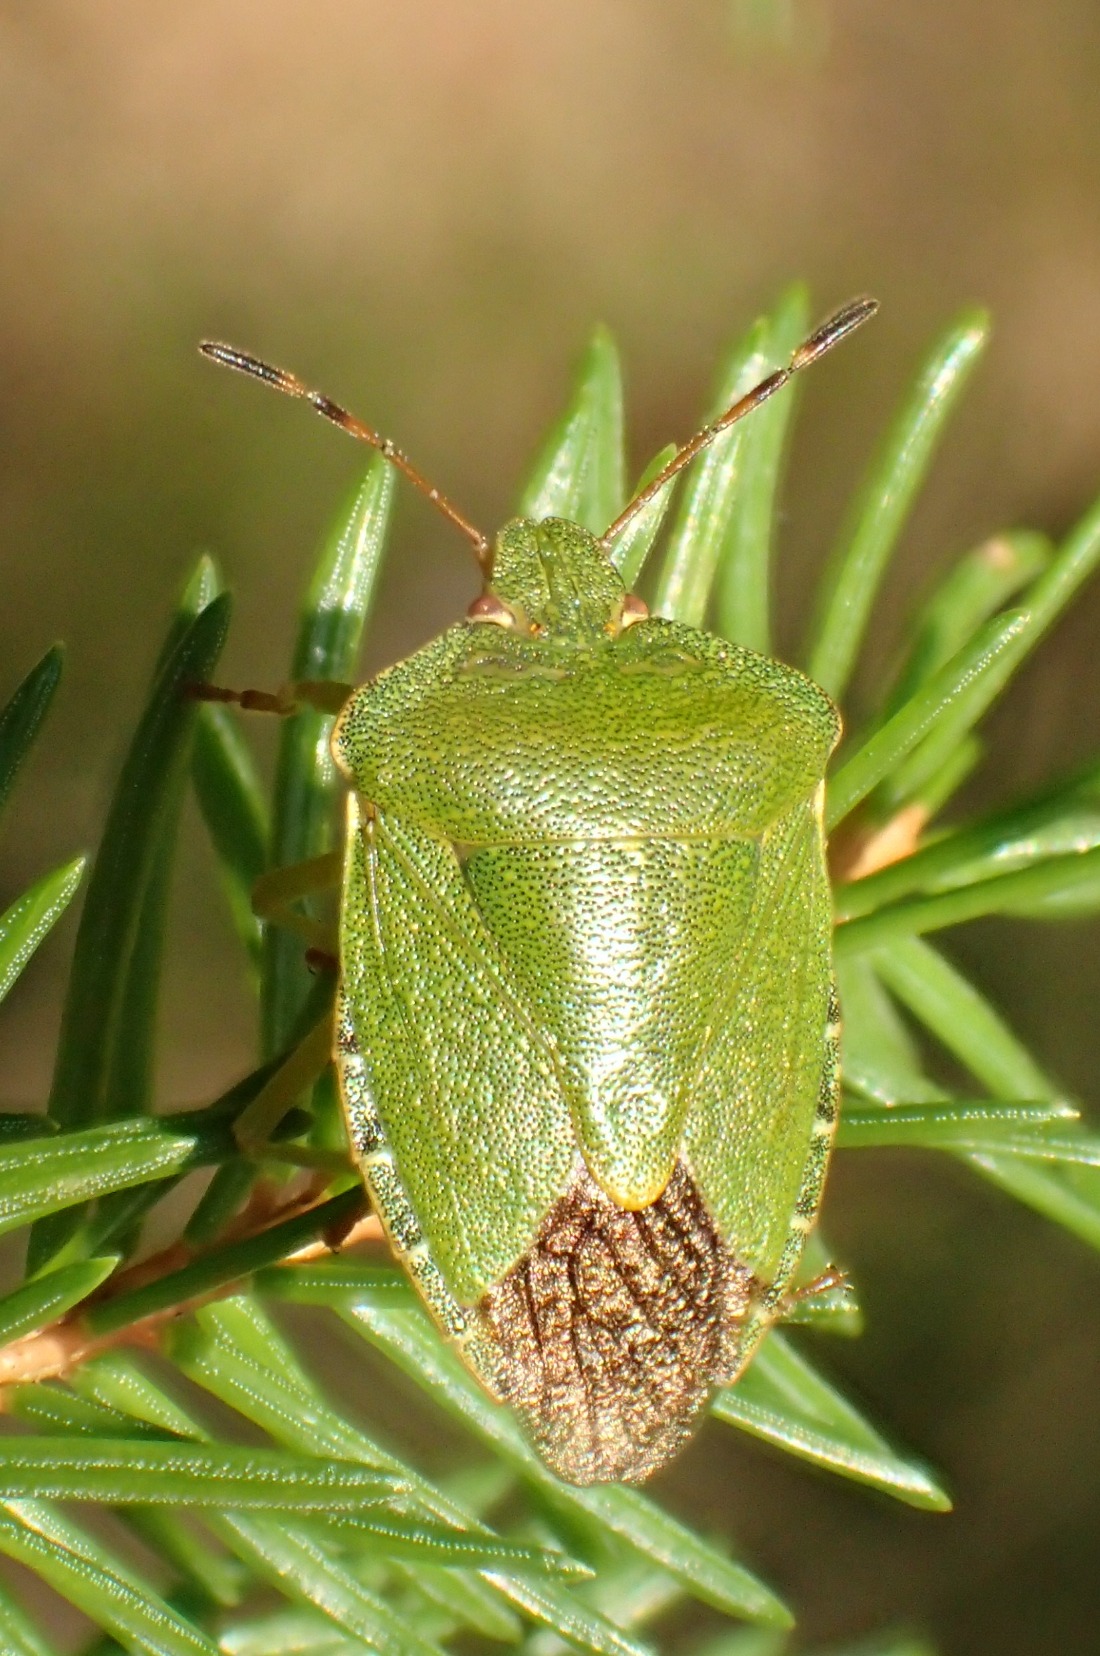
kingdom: Animalia
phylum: Arthropoda
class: Insecta
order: Hemiptera
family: Pentatomidae
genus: Palomena
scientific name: Palomena prasina
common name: Grøn bredtæge
